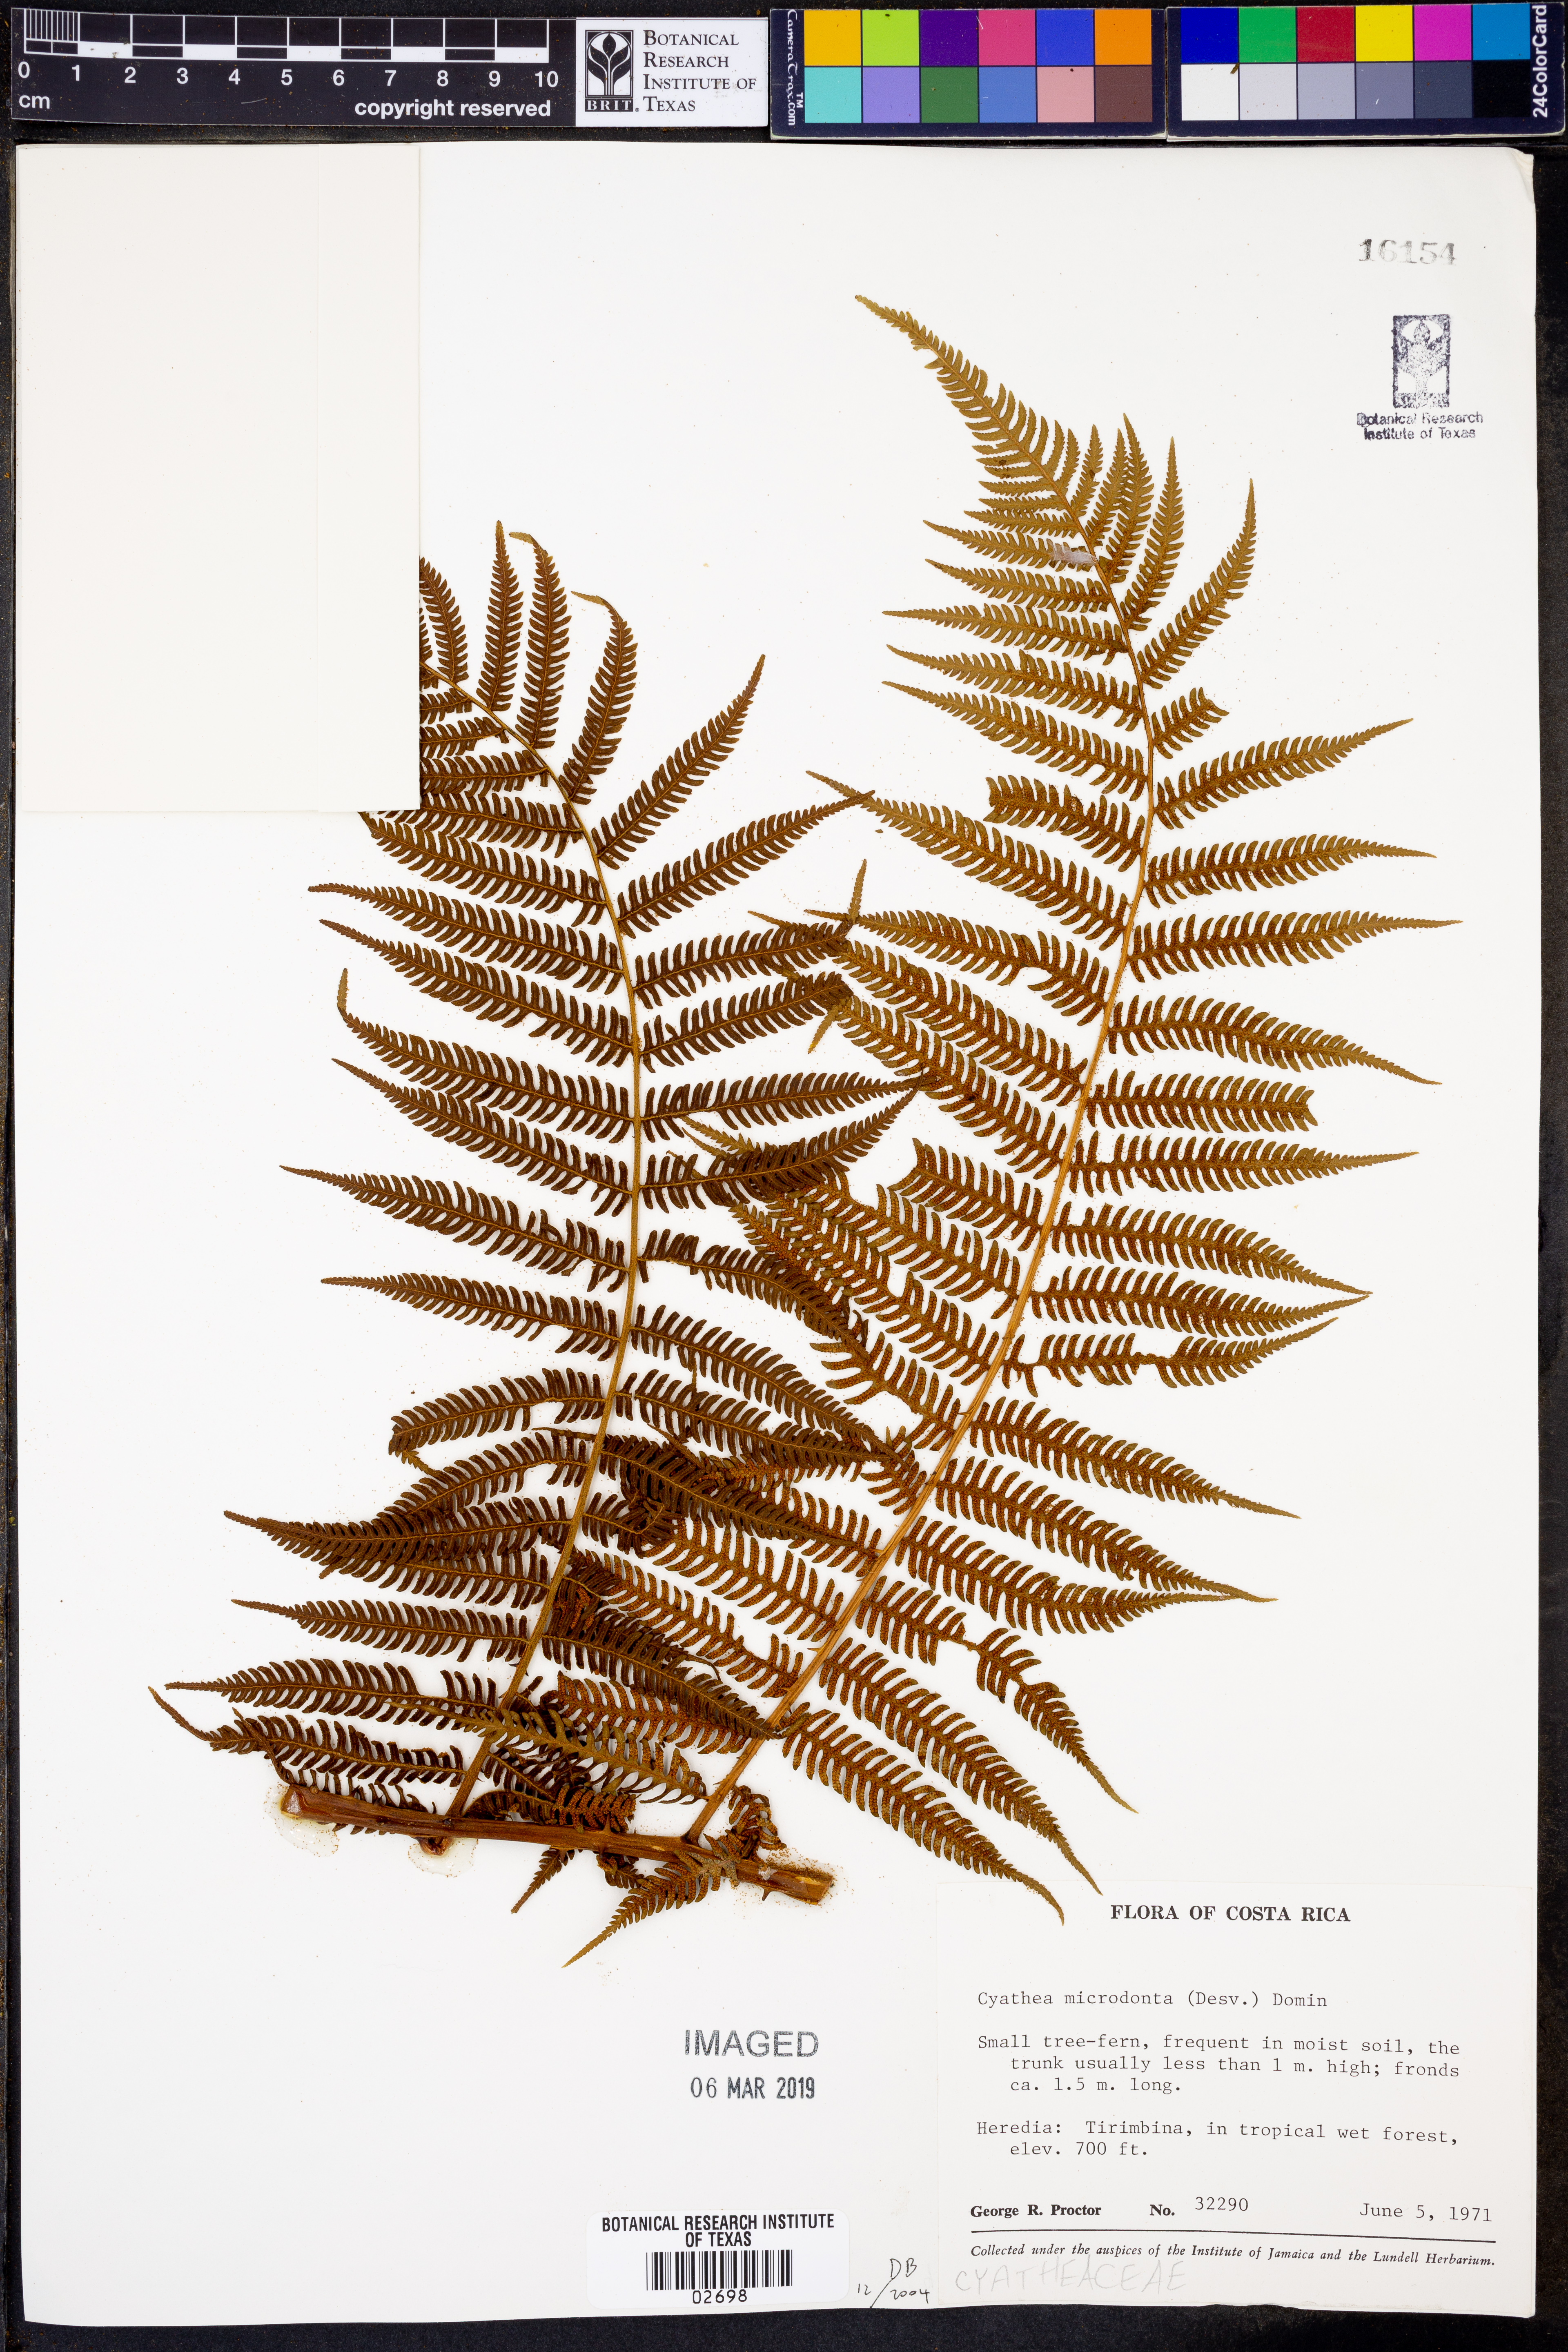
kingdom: Plantae
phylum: Tracheophyta
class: Polypodiopsida
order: Cyatheales
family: Cyatheaceae
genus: Cyathea
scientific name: Cyathea microdonta
